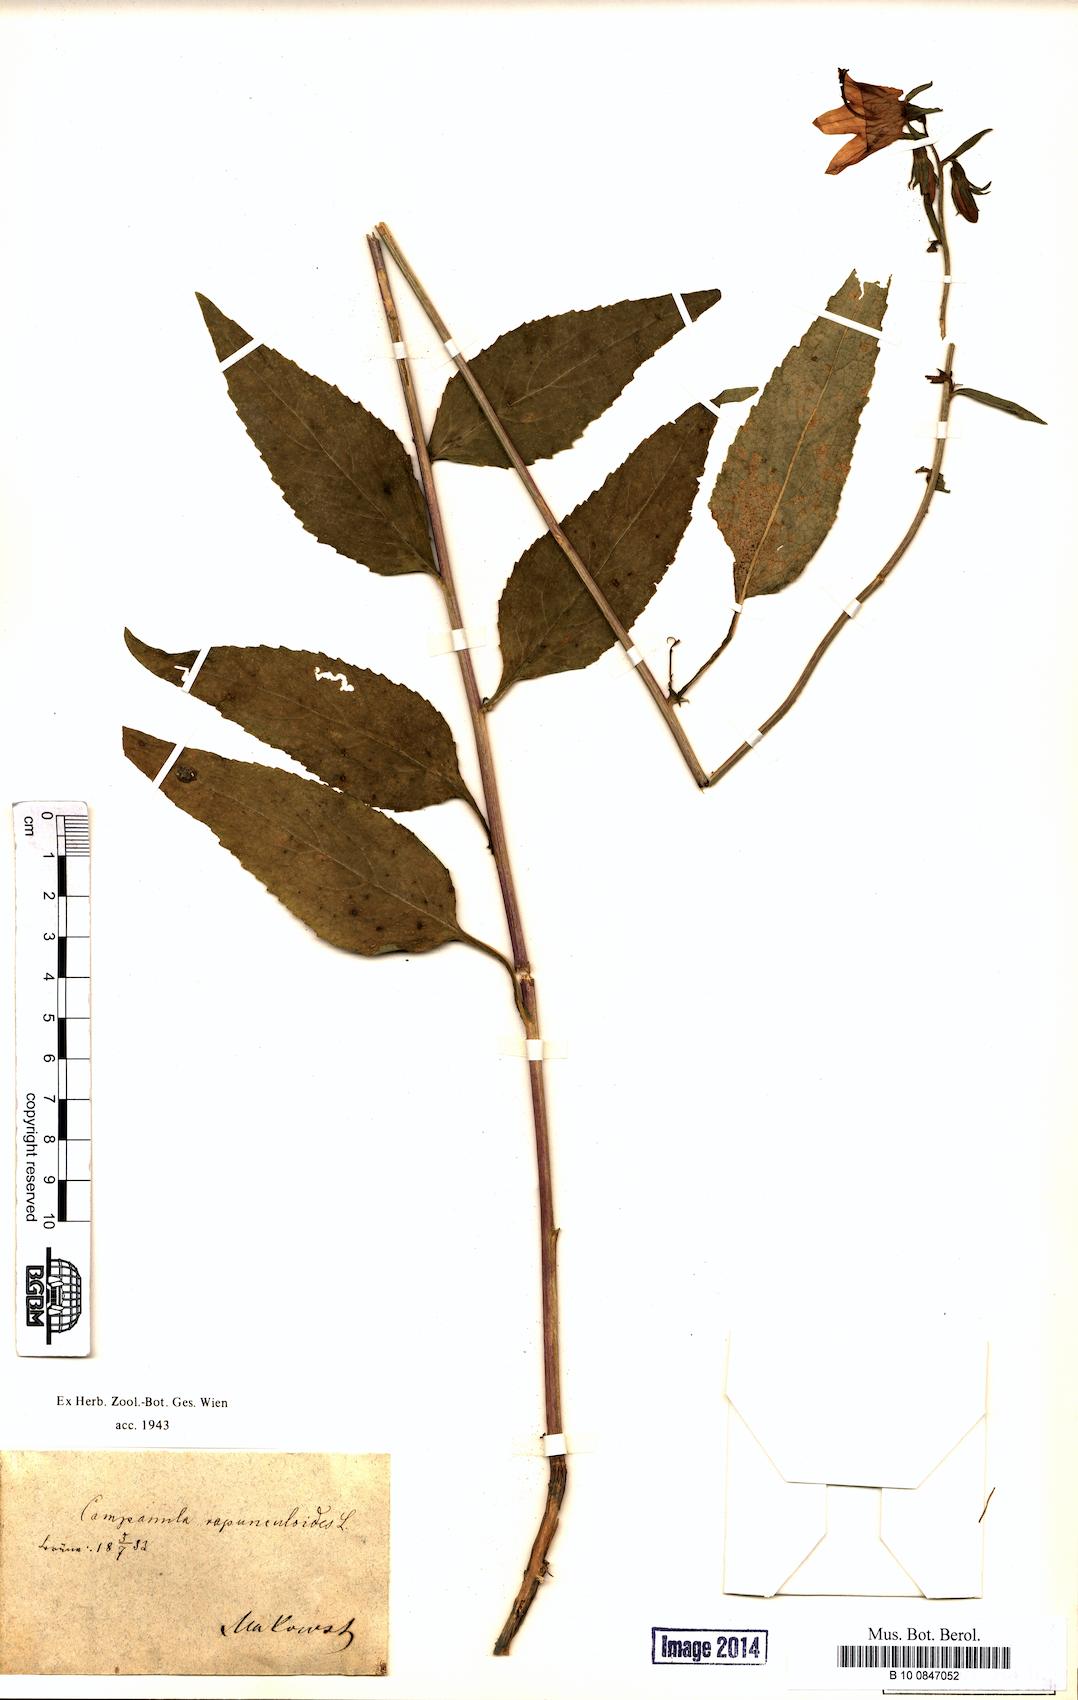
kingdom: Plantae
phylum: Tracheophyta
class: Magnoliopsida
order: Asterales
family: Campanulaceae
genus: Campanula
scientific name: Campanula rapunculoides
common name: Creeping bellflower
